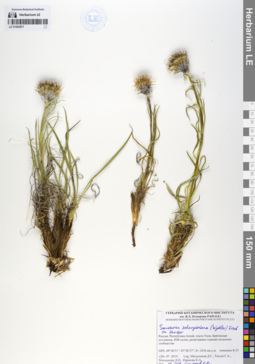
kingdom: Plantae
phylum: Tracheophyta
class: Magnoliopsida
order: Asterales
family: Asteraceae
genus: Saussurea
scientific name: Saussurea schanginiana
